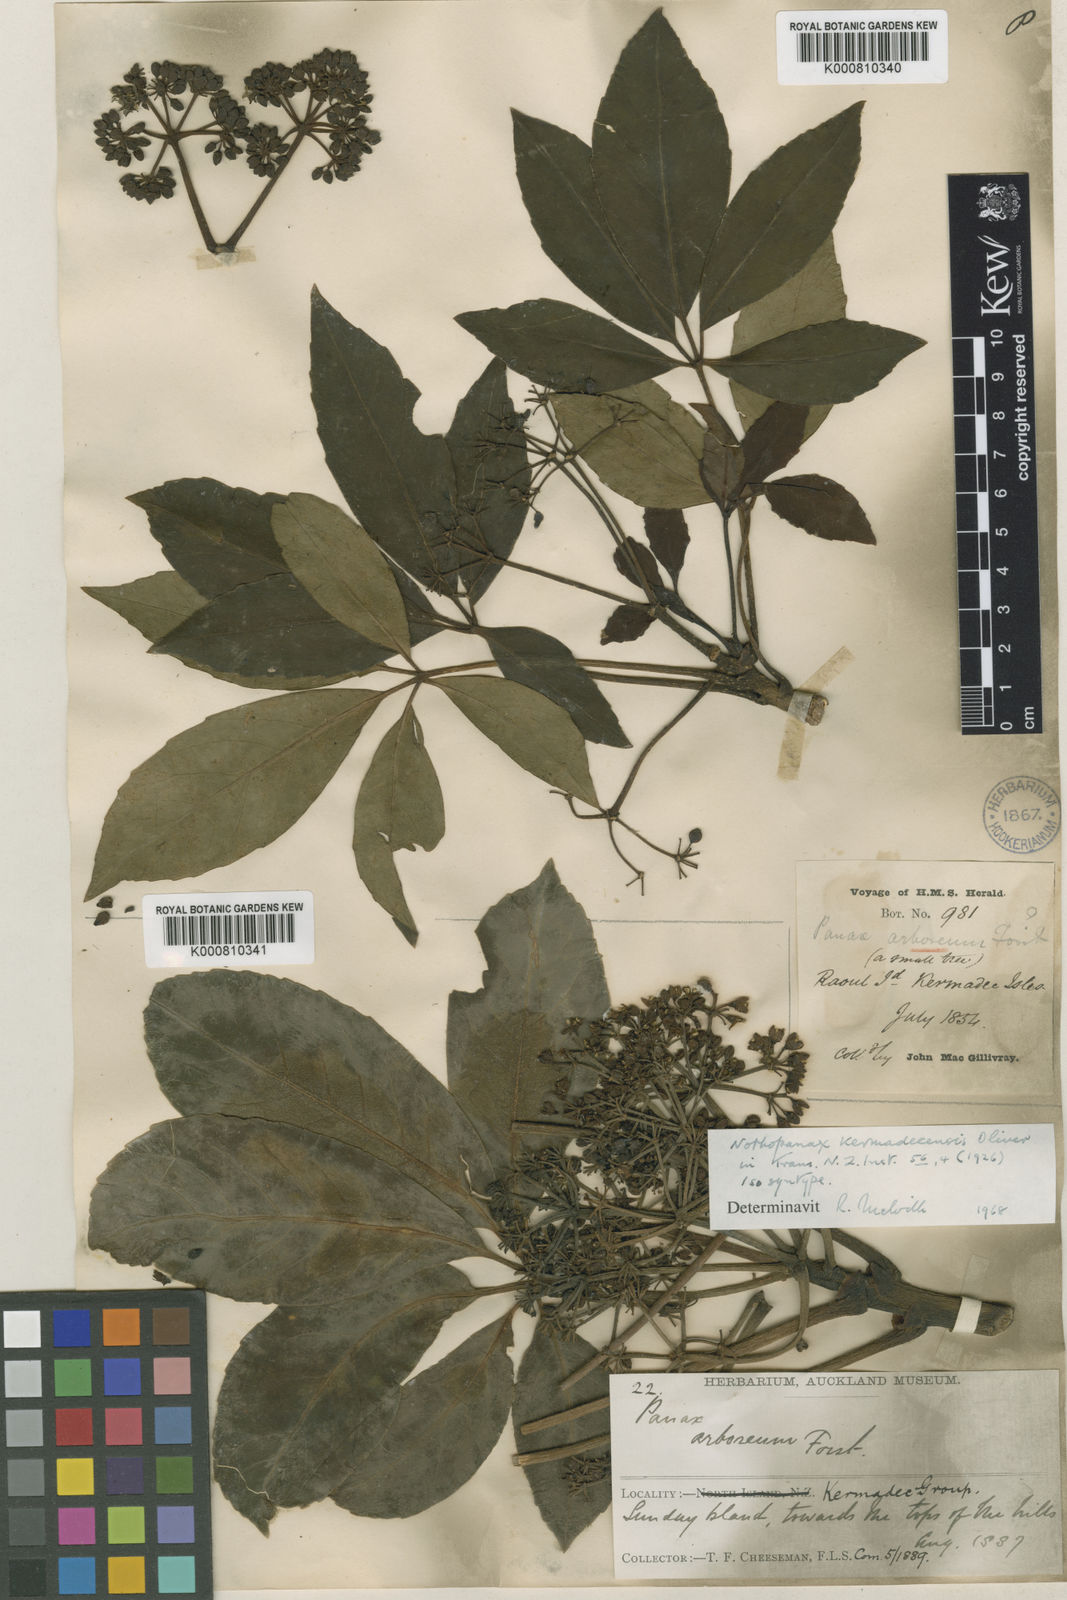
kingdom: Plantae
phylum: Tracheophyta
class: Magnoliopsida
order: Apiales
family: Araliaceae
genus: Neopanax
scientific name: Neopanax kermadecense
